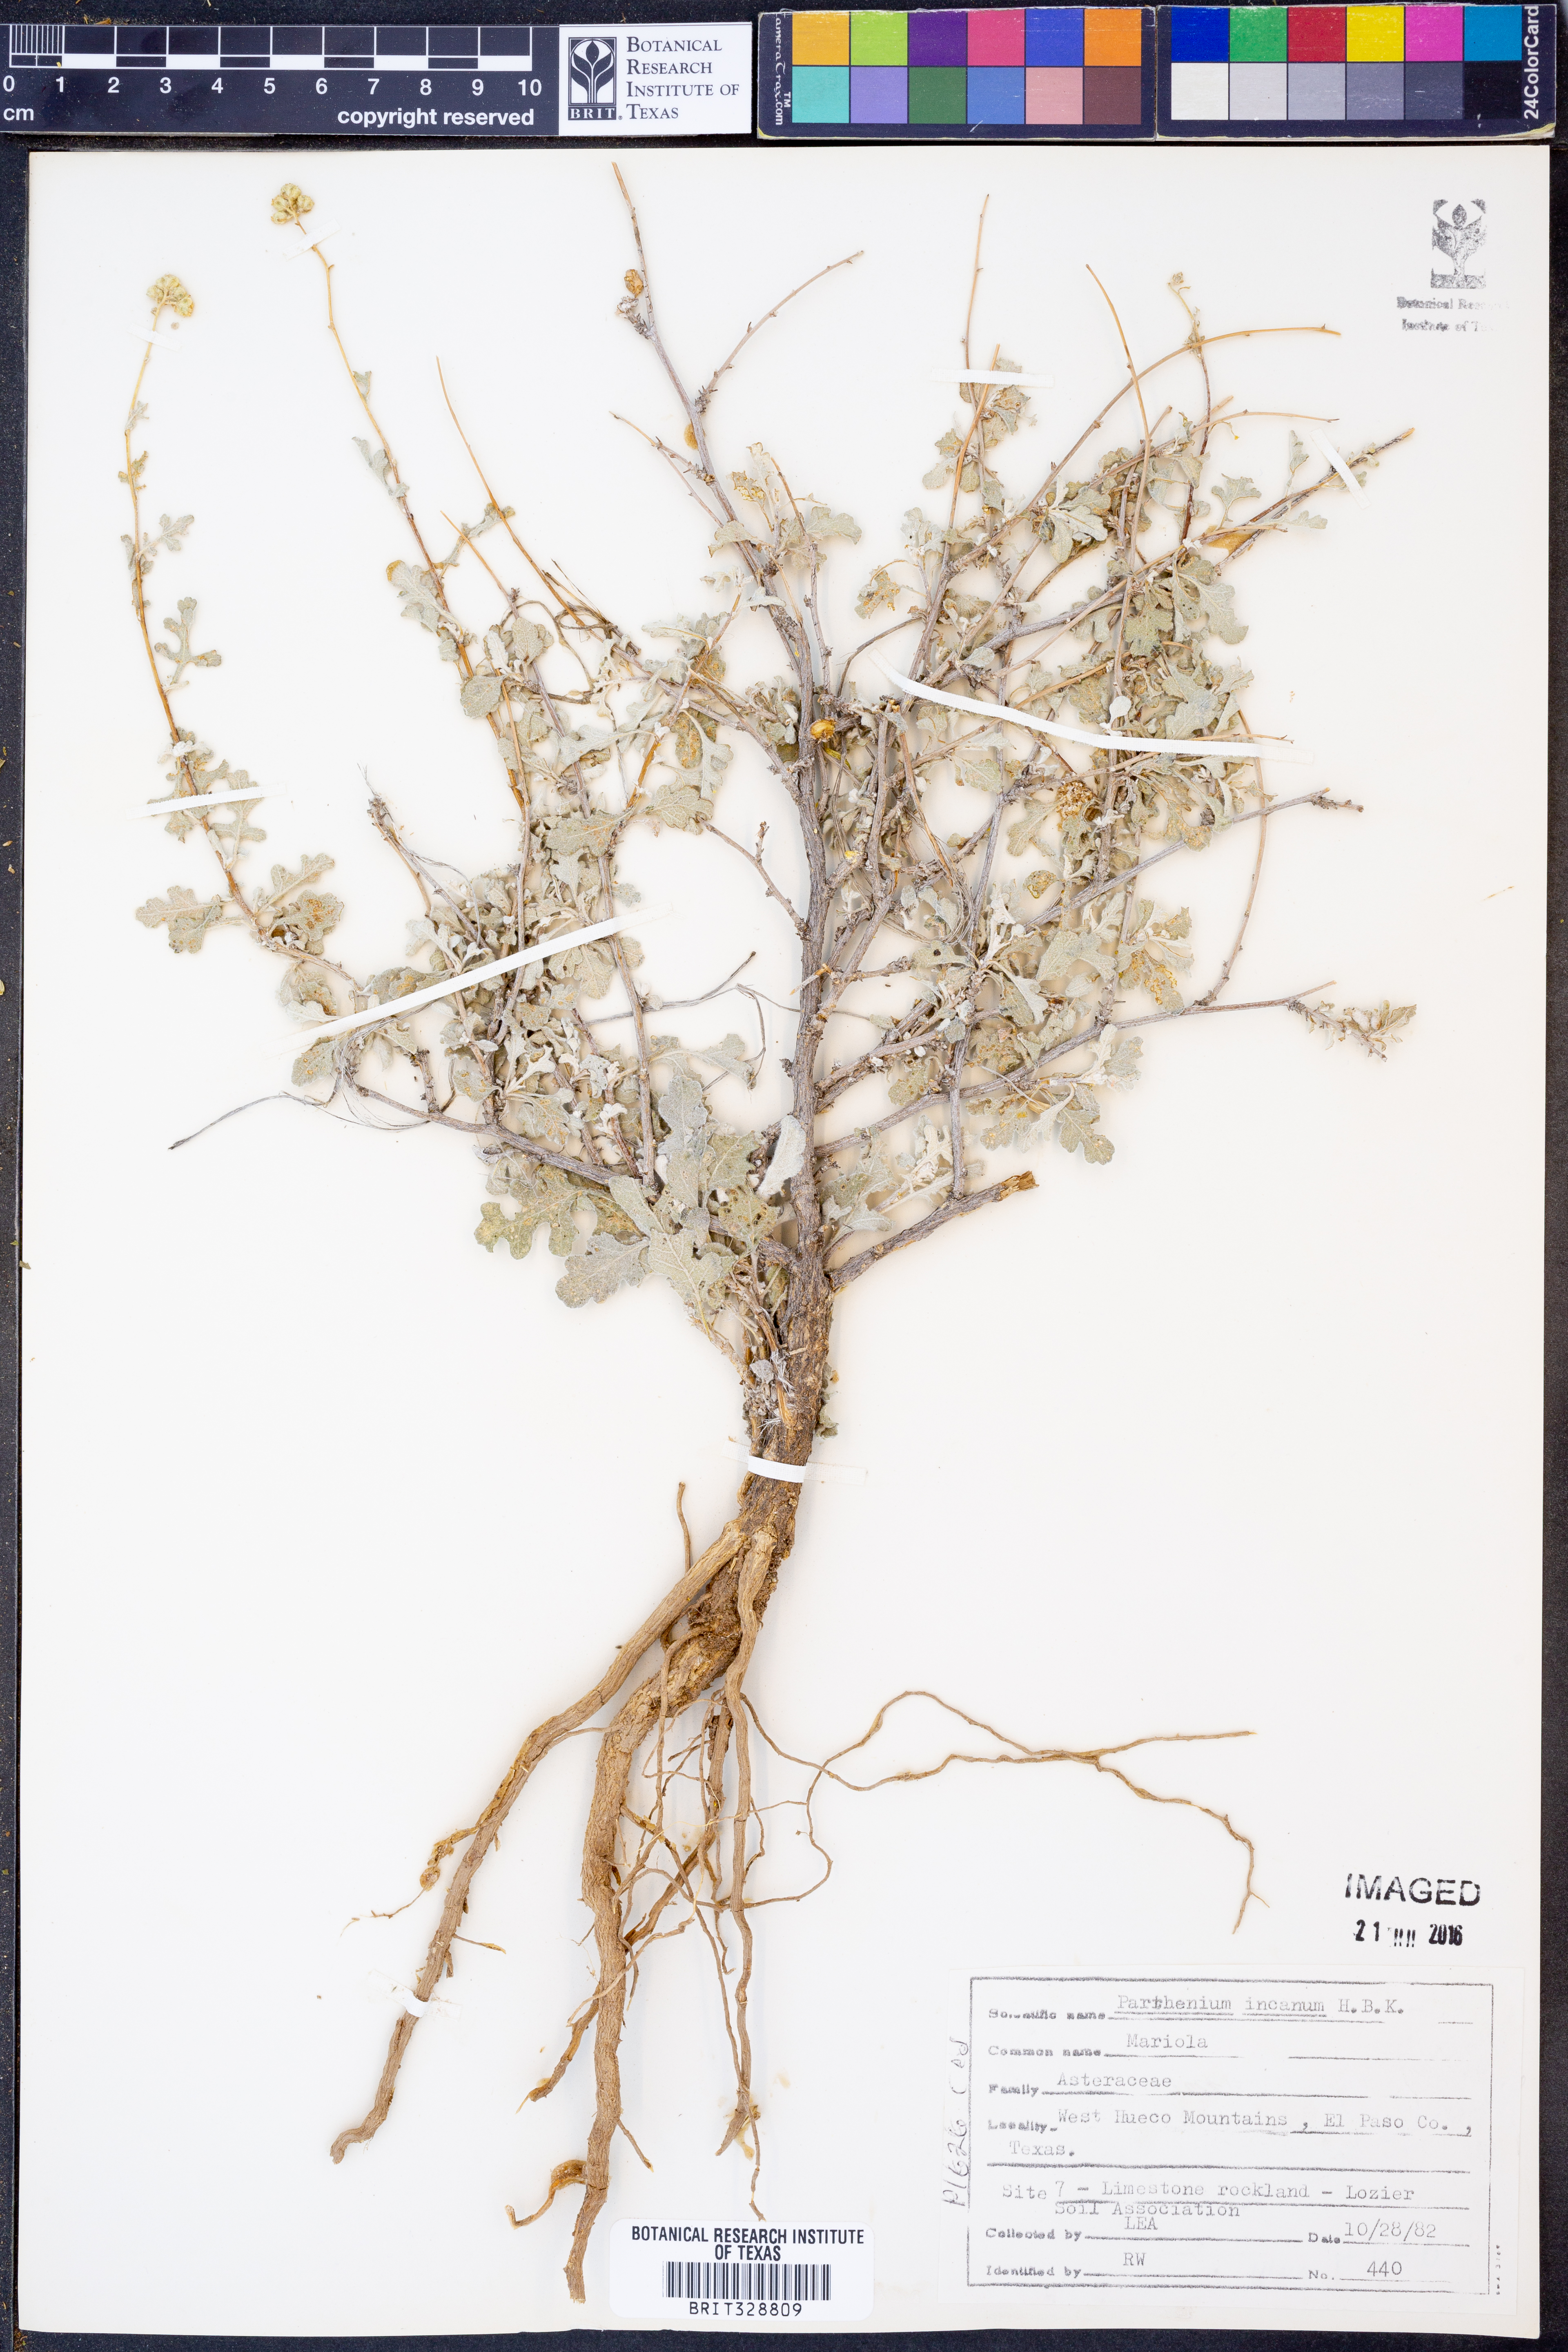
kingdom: Plantae
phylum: Tracheophyta
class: Magnoliopsida
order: Asterales
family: Asteraceae
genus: Parthenium
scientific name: Parthenium incanum
